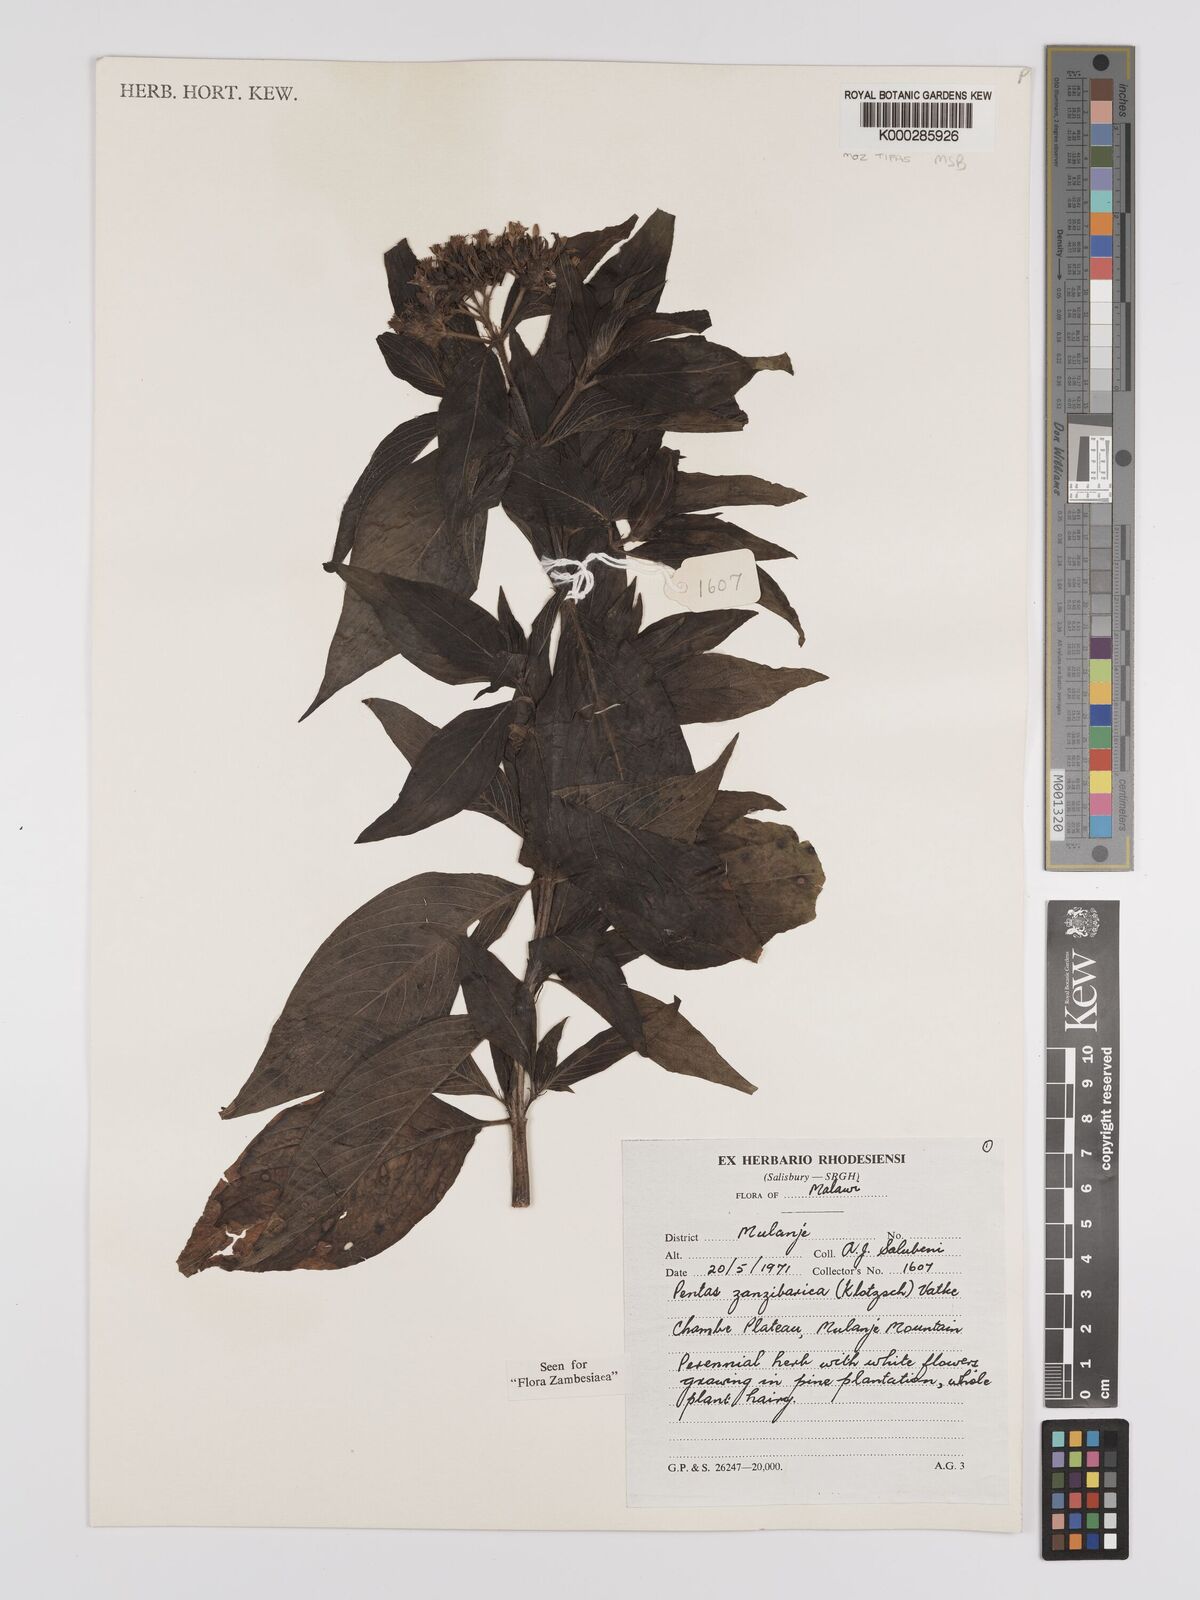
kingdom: Plantae
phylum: Tracheophyta
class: Magnoliopsida
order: Gentianales
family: Rubiaceae
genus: Pentas
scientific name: Pentas zanzibarica
